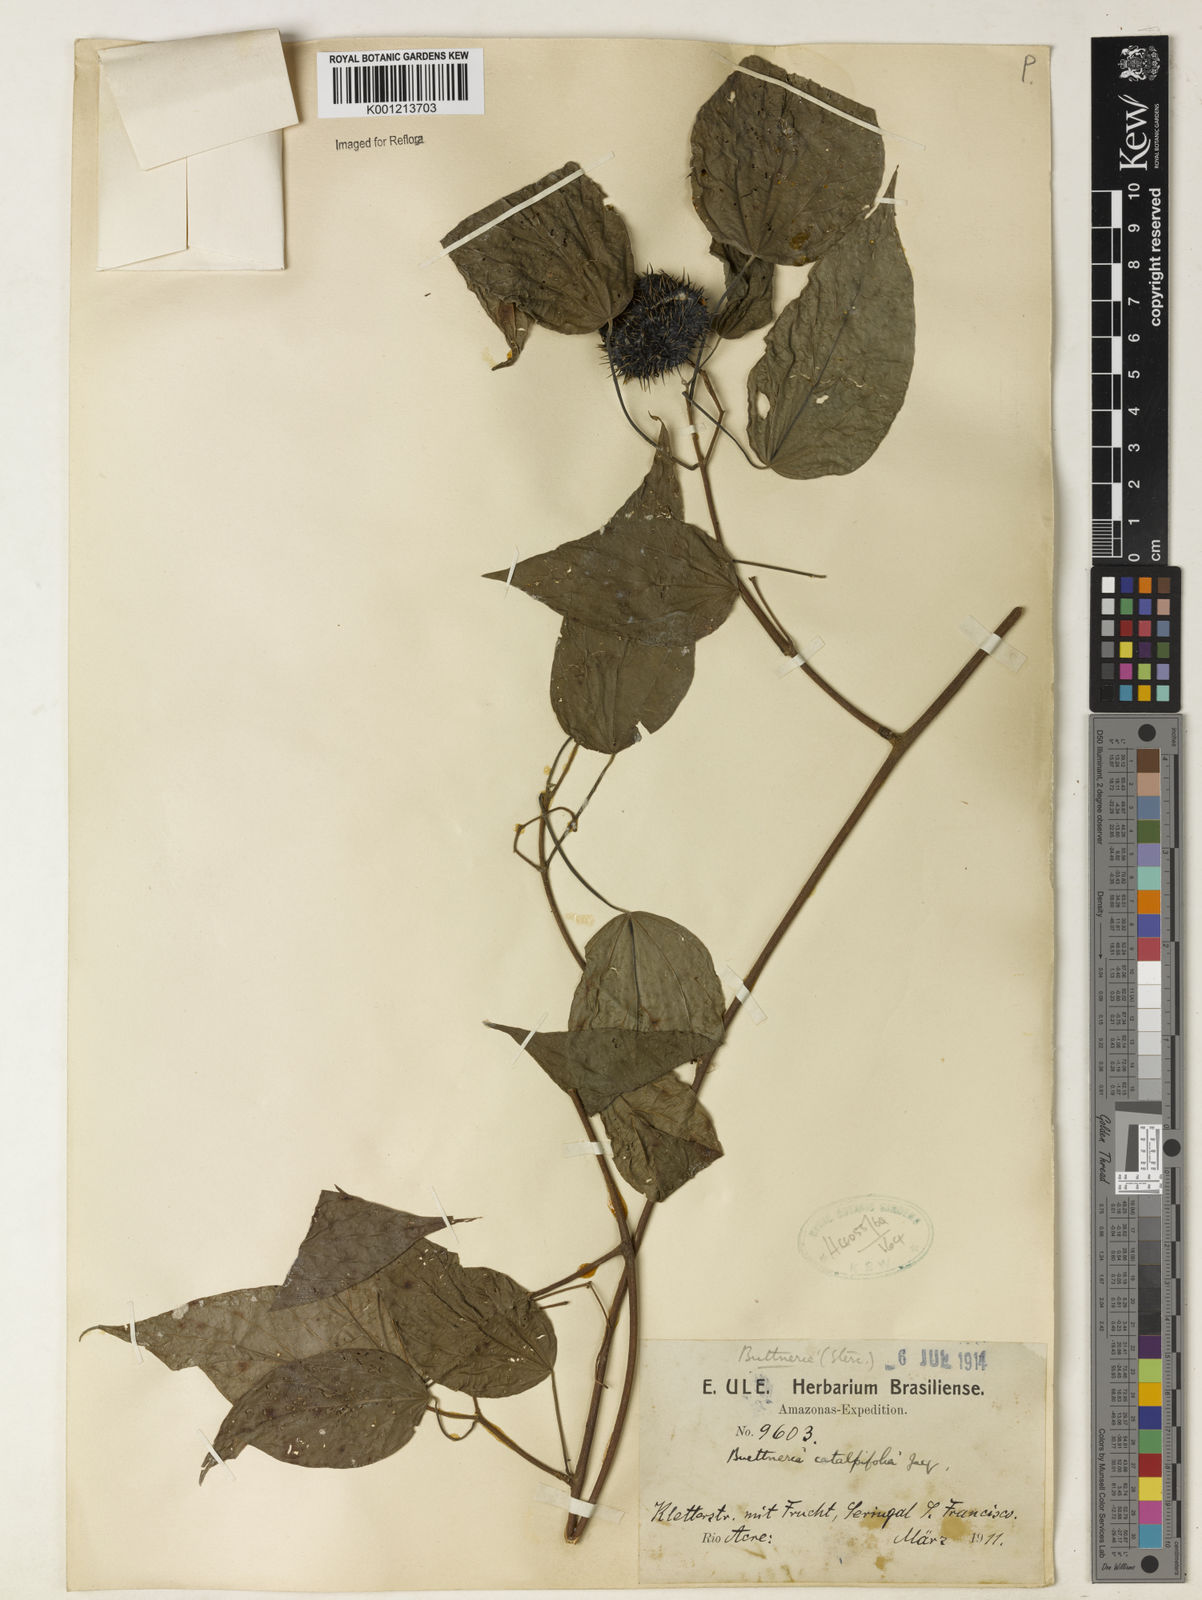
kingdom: Plantae
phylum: Tracheophyta
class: Magnoliopsida
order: Malvales
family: Malvaceae
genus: Byttneria
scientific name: Byttneria catalpifolia
